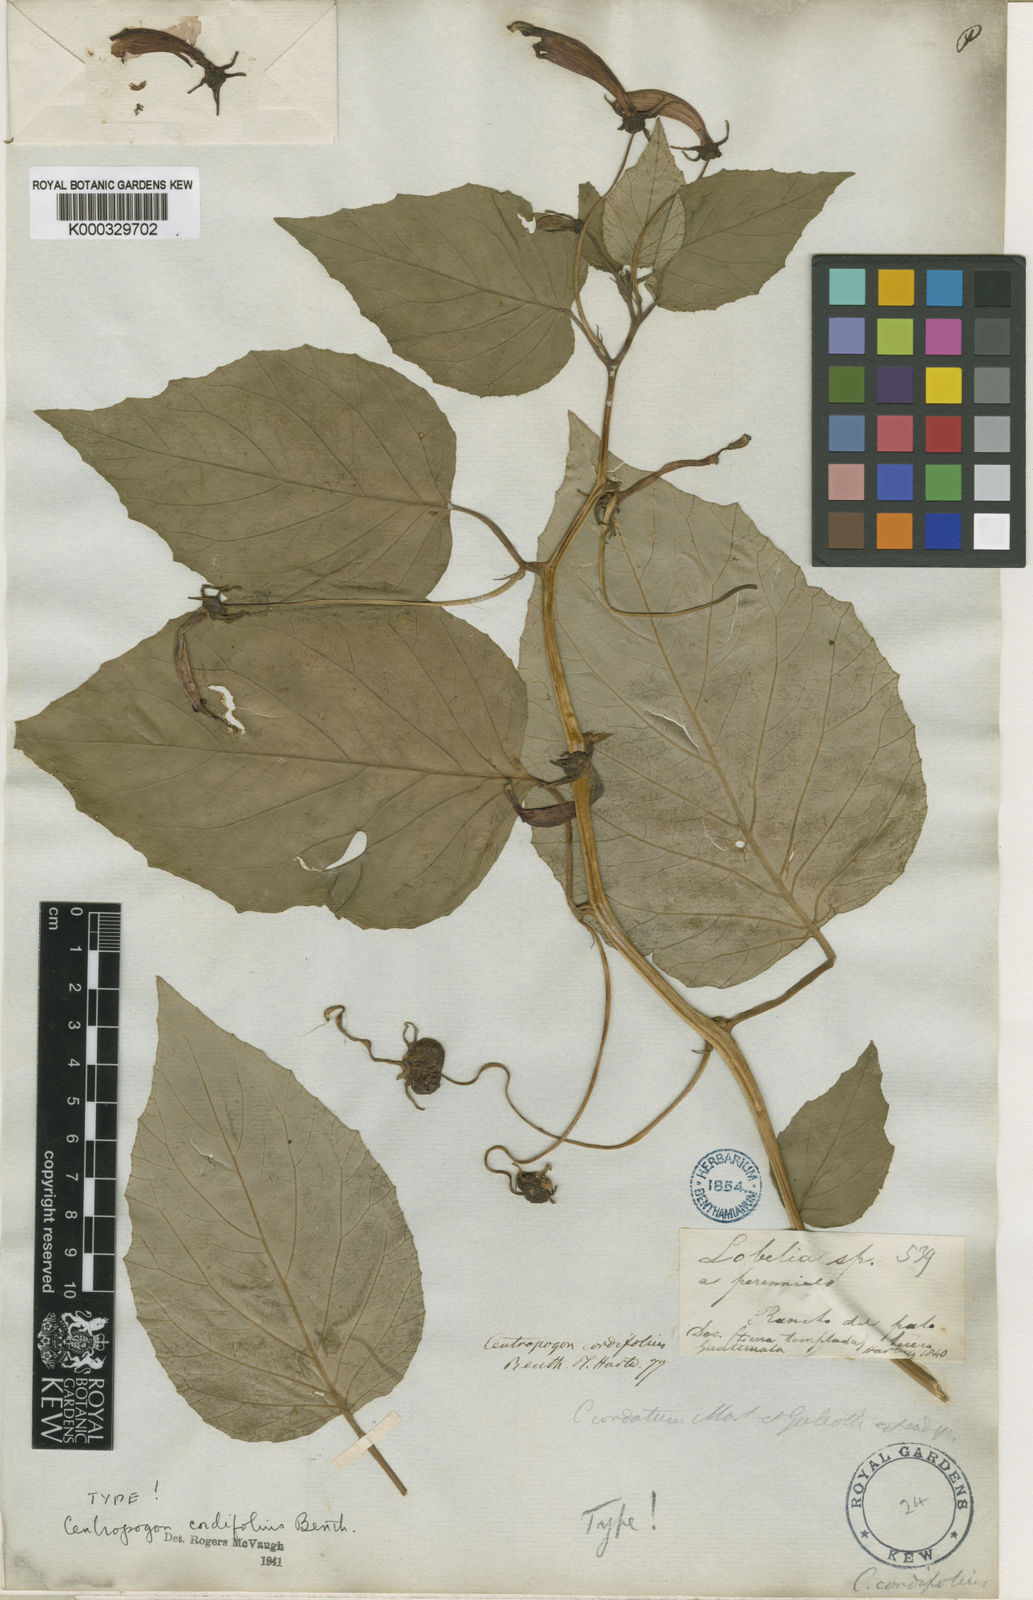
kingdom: Plantae
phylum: Tracheophyta
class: Magnoliopsida
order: Asterales
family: Campanulaceae
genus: Centropogon
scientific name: Centropogon cordifolius
